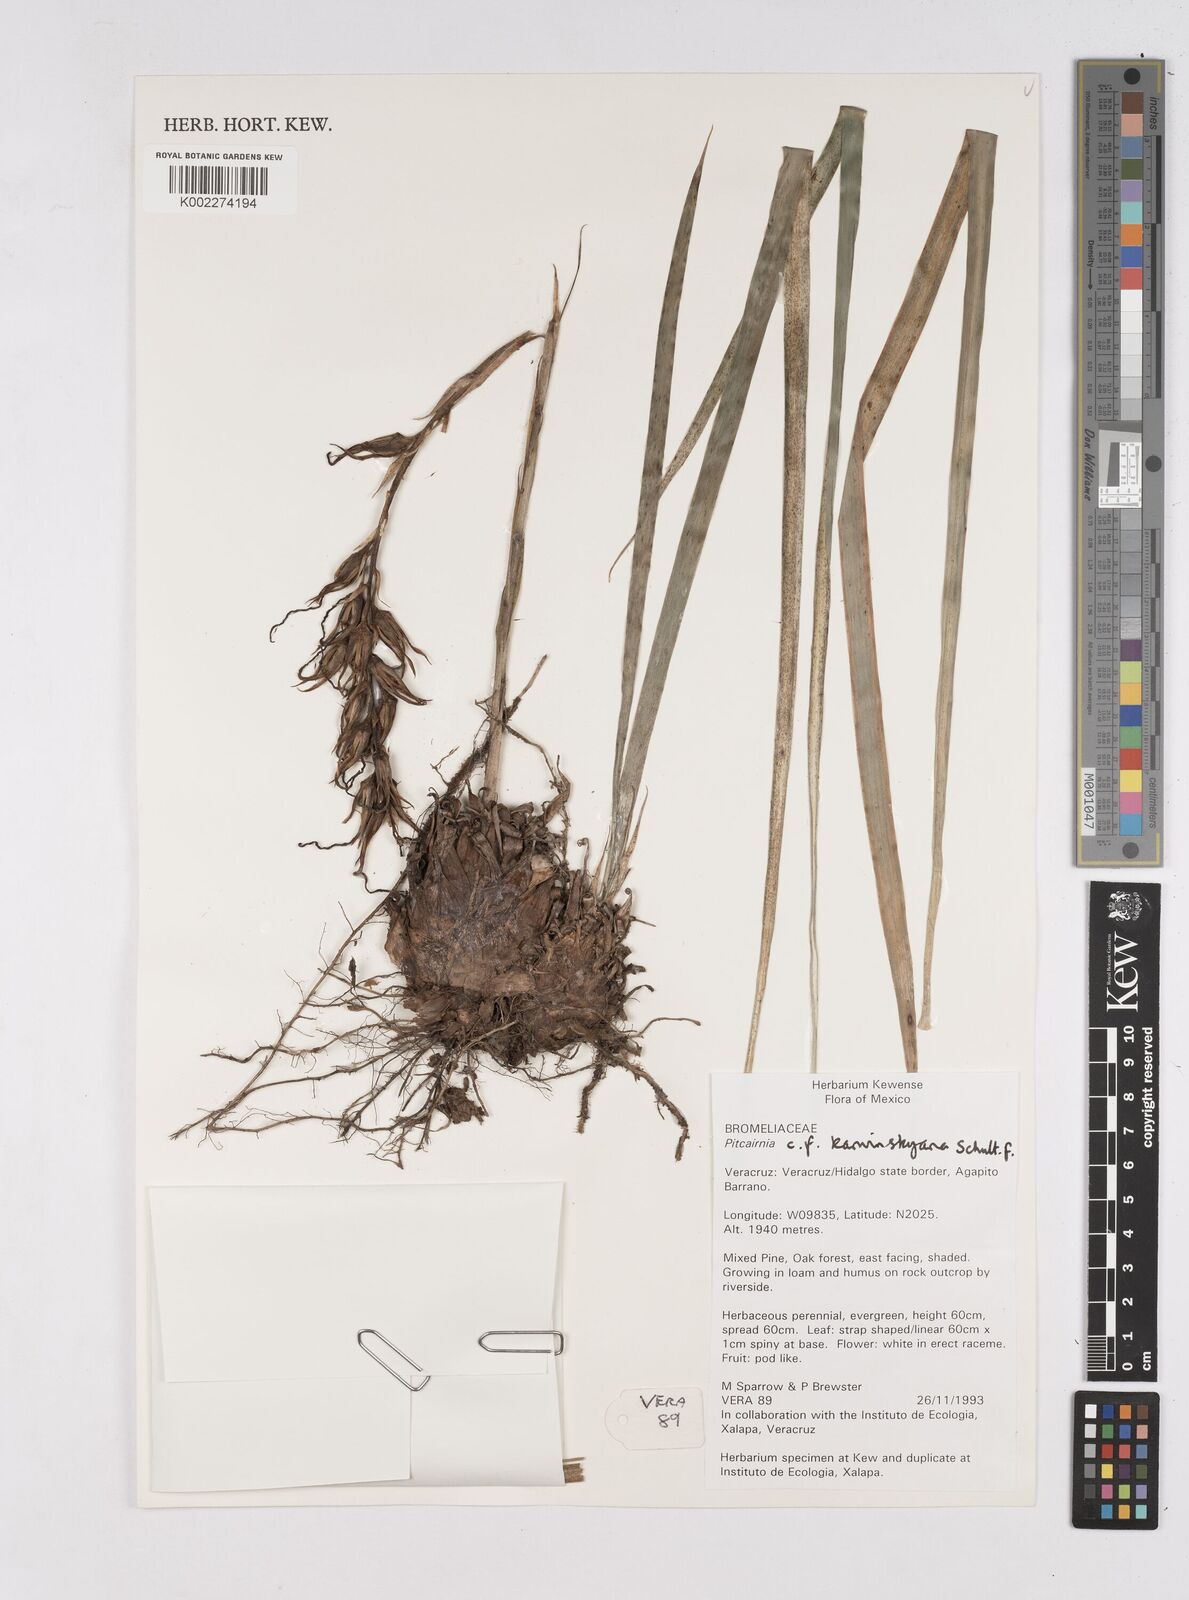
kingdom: Plantae
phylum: Tracheophyta
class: Liliopsida
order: Poales
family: Bromeliaceae
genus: Pitcairnia
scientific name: Pitcairnia karwinskyana
